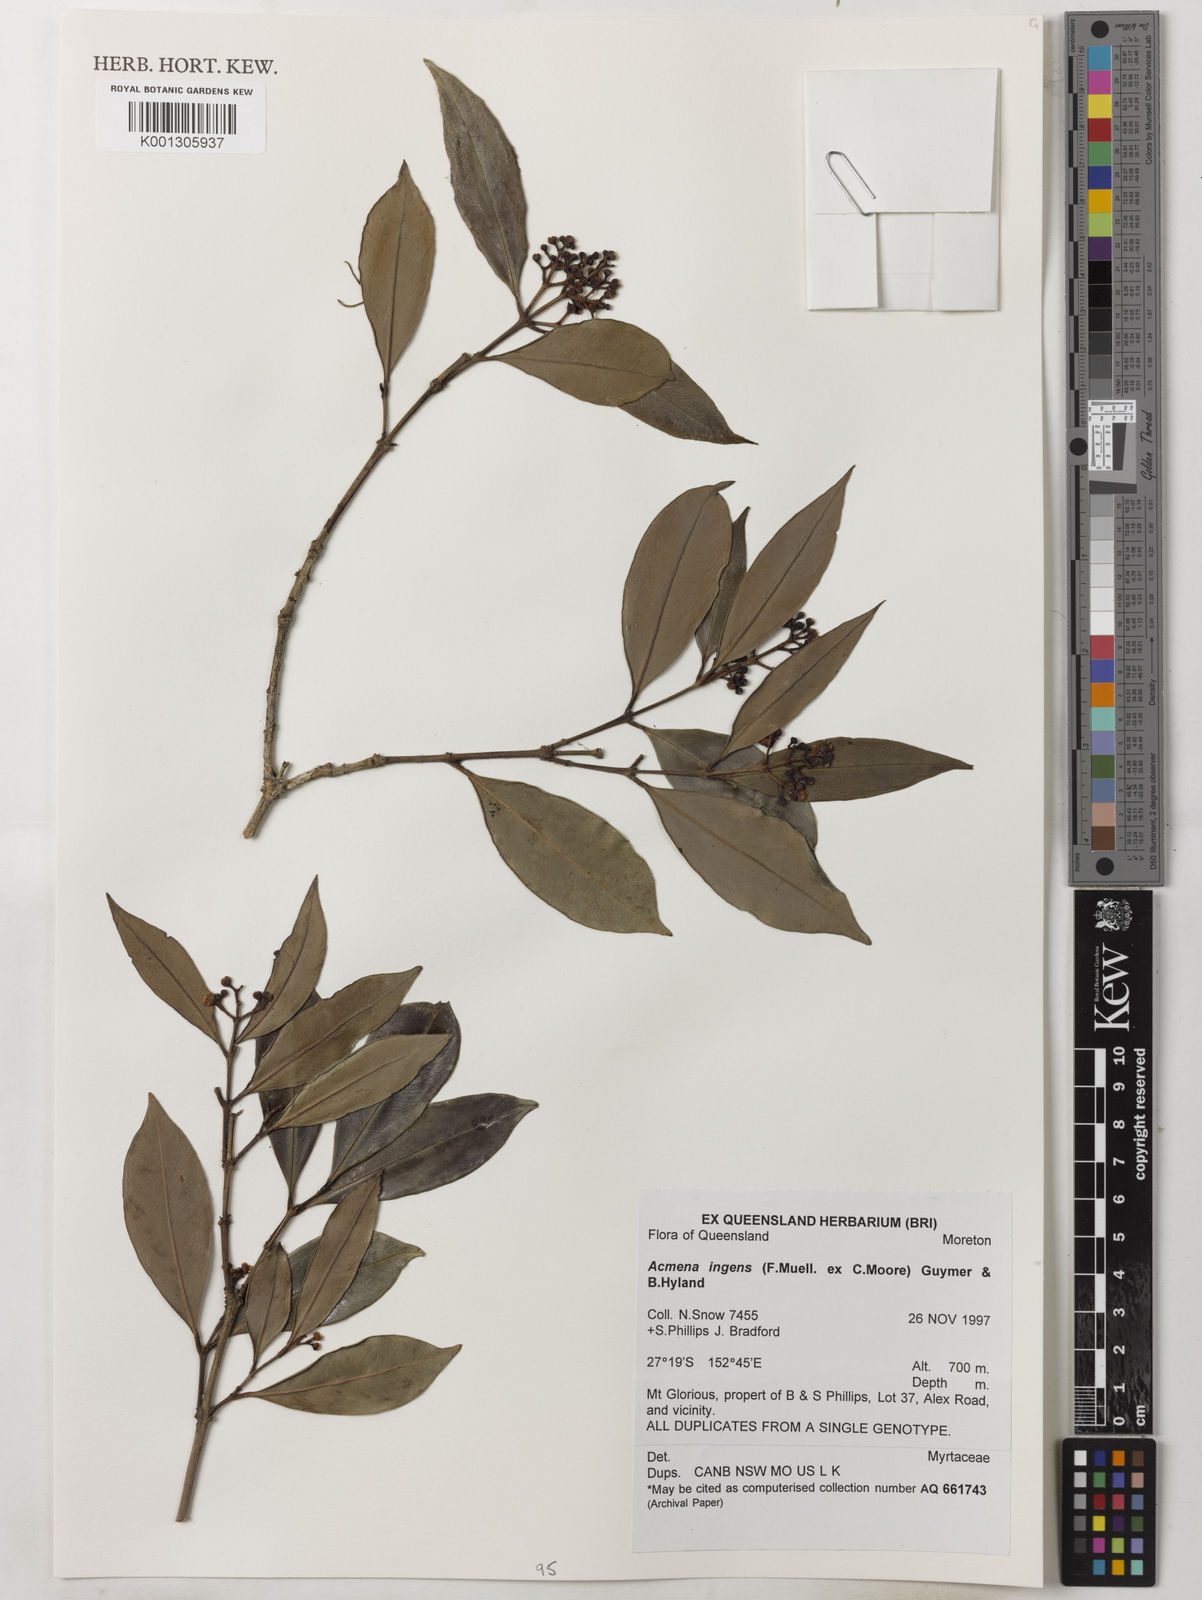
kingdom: Plantae
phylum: Tracheophyta
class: Magnoliopsida
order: Myrtales
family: Myrtaceae
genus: Syzygium
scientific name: Syzygium ingens
